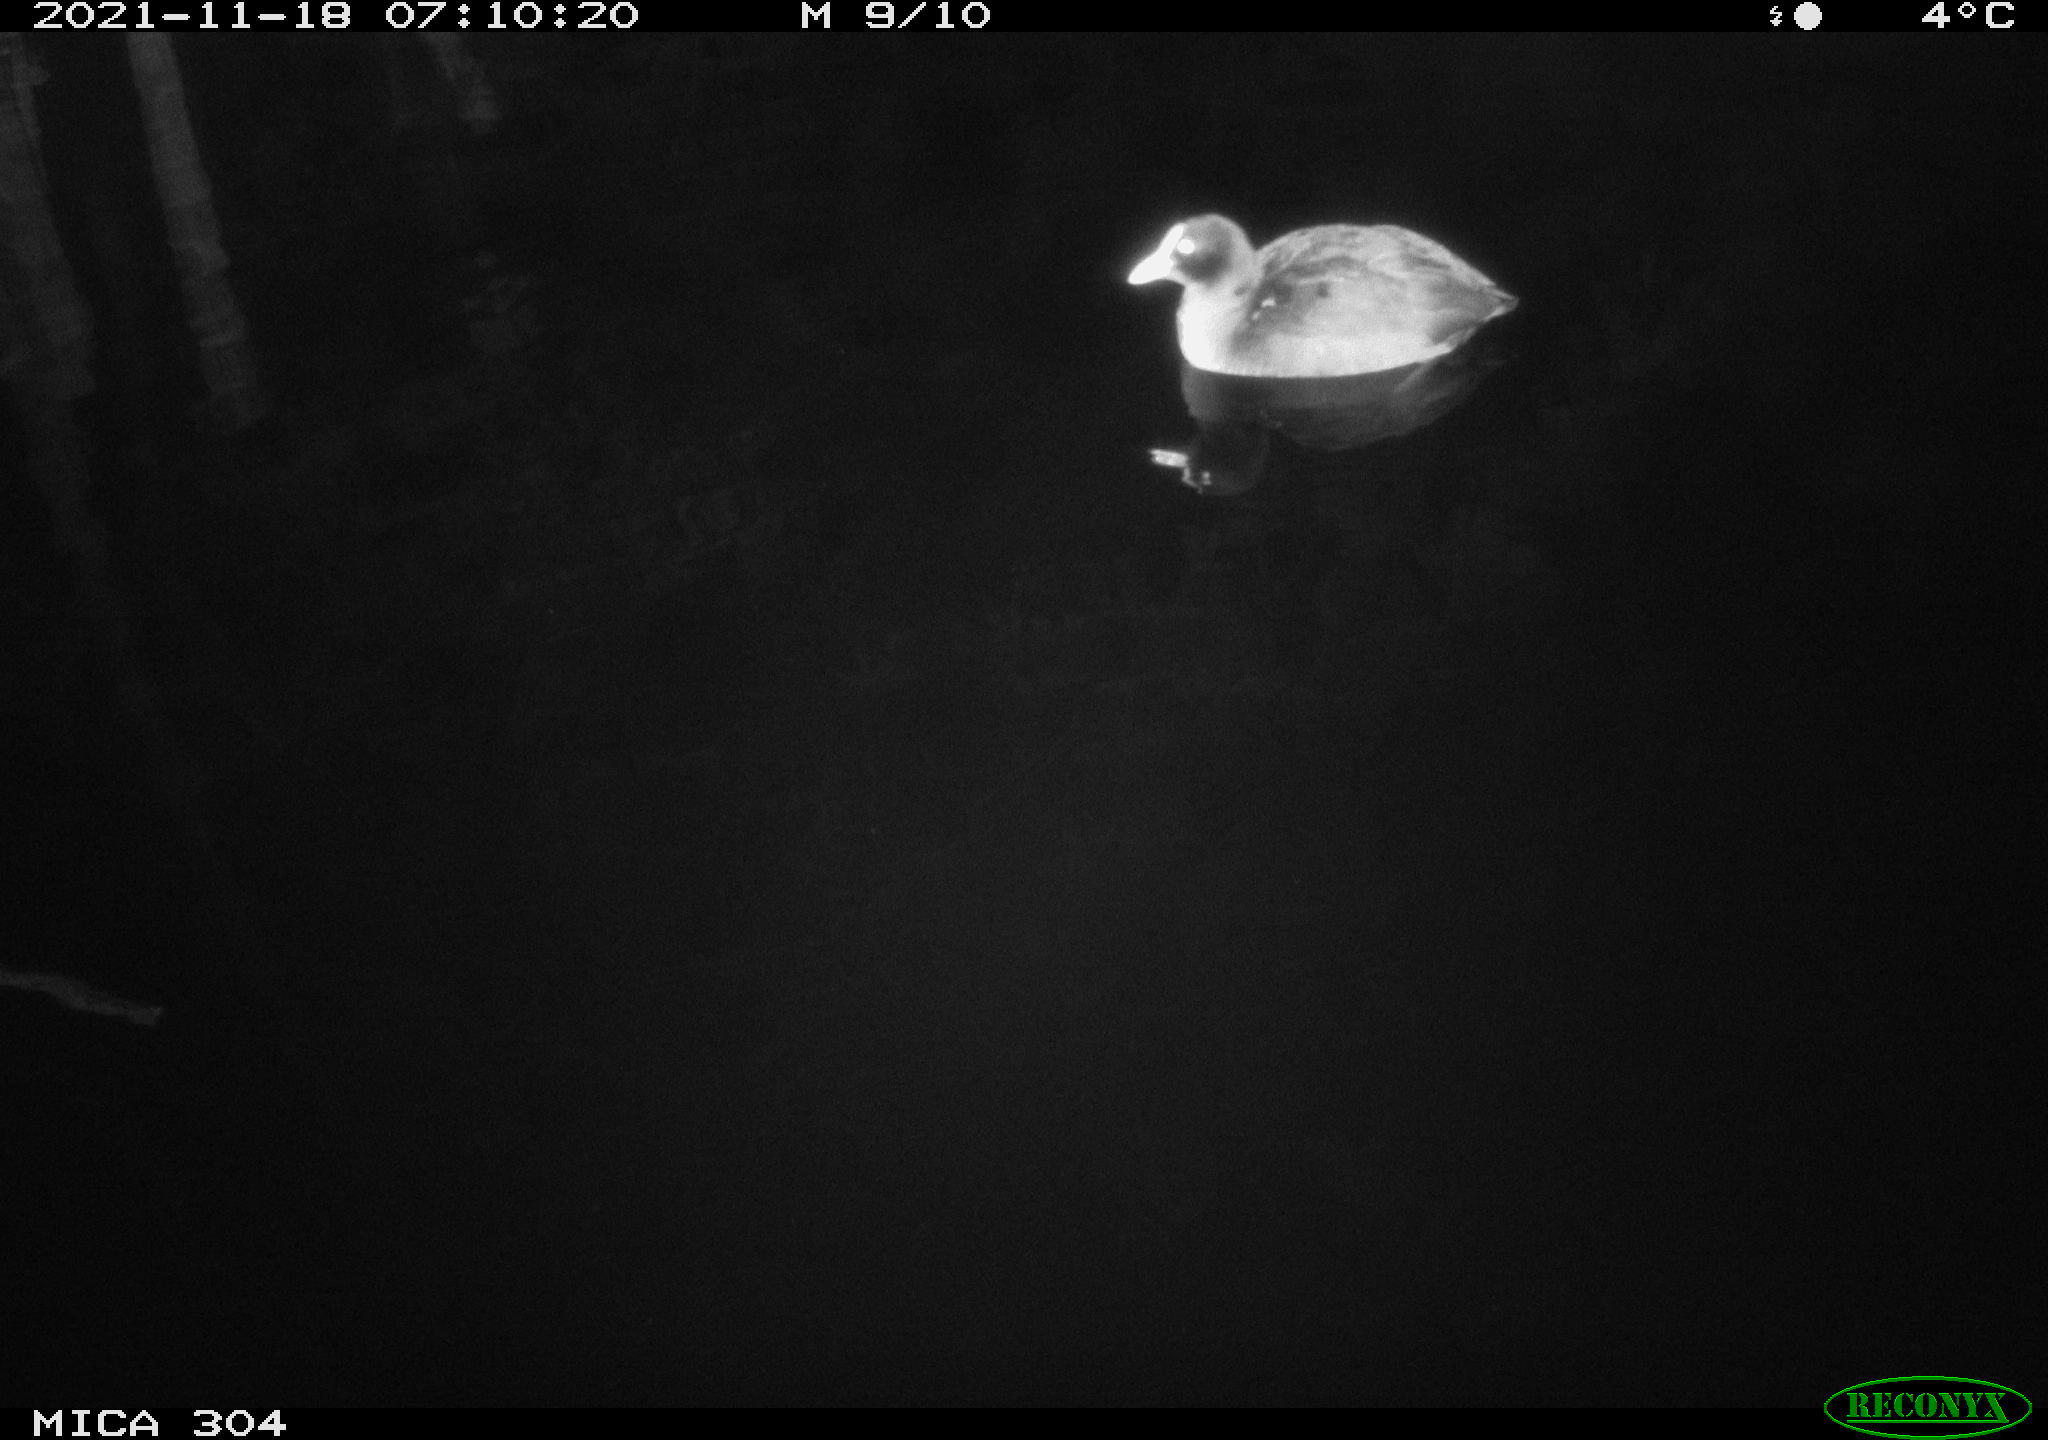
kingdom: Animalia
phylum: Chordata
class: Aves
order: Gruiformes
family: Rallidae
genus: Fulica
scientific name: Fulica atra
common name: Eurasian coot
